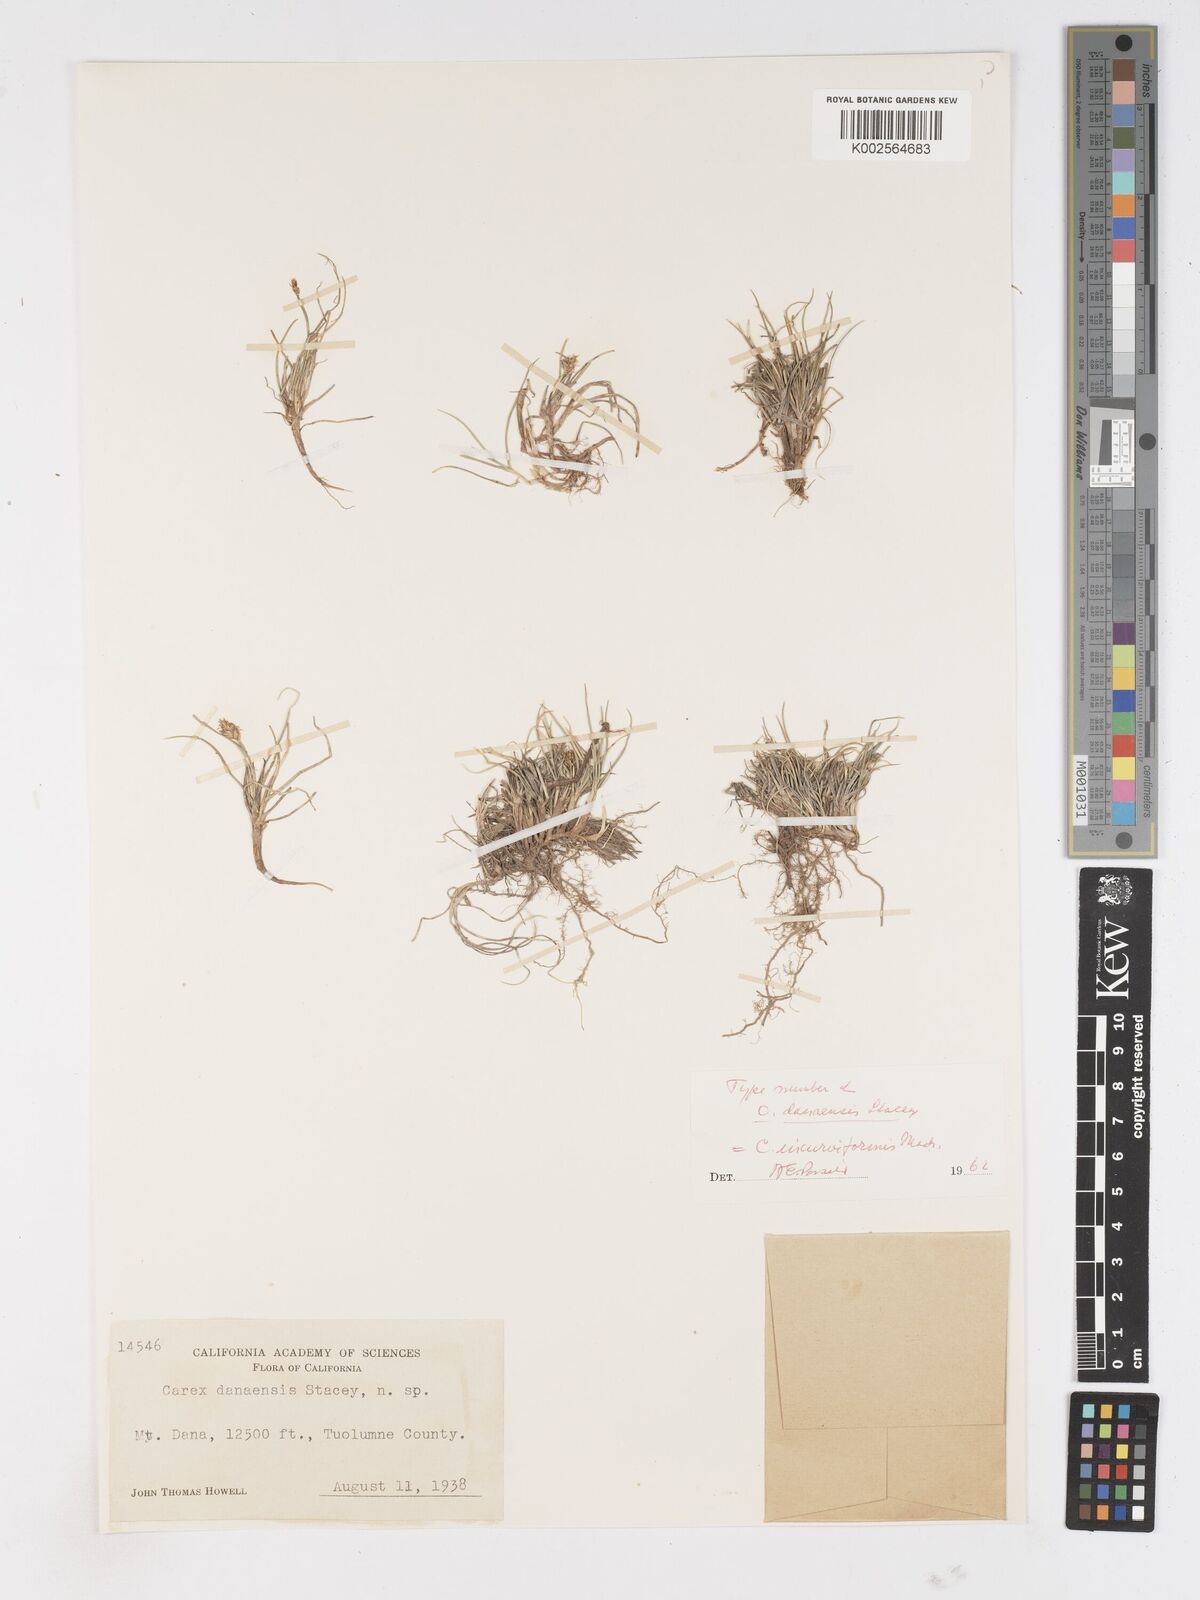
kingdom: Plantae
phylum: Tracheophyta
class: Liliopsida
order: Poales
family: Cyperaceae
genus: Carex
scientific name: Carex incurviformis
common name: Coastal sand sedge
